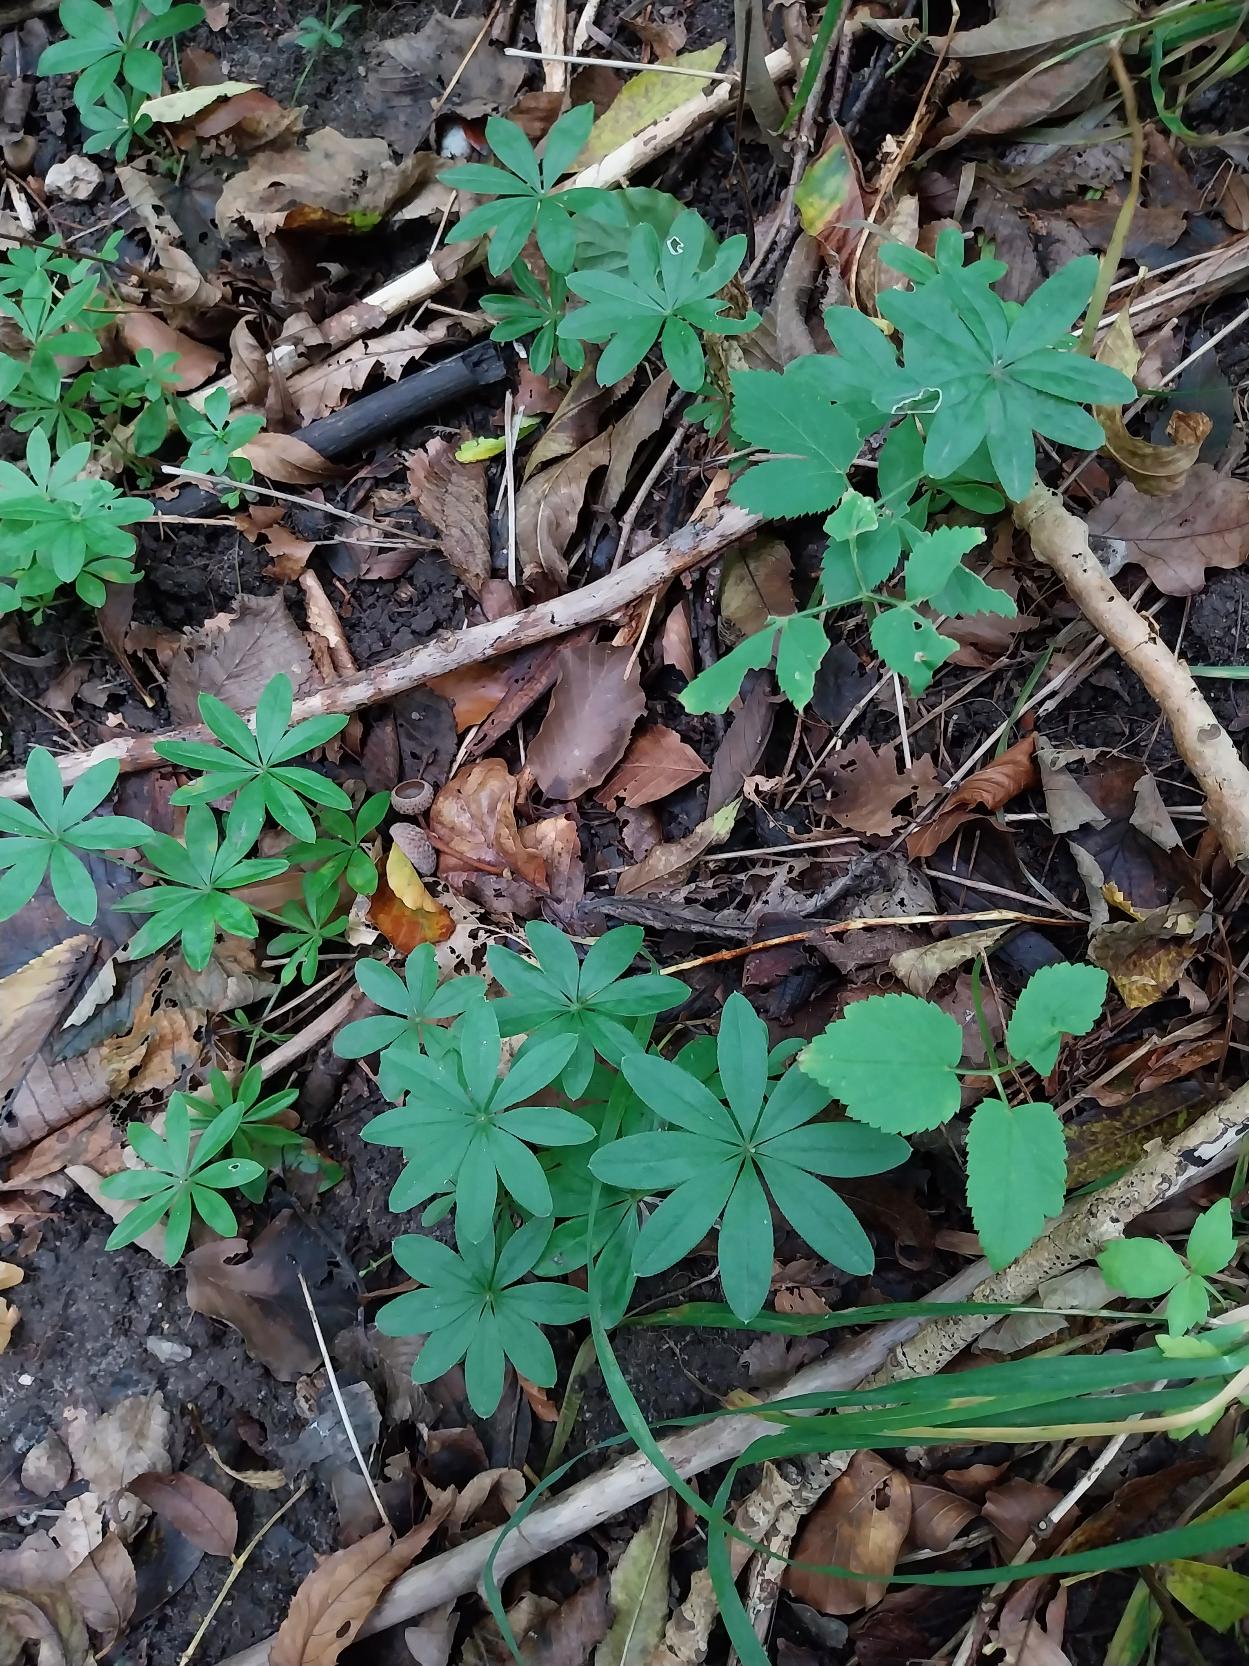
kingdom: Plantae
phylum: Tracheophyta
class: Magnoliopsida
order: Gentianales
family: Rubiaceae
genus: Galium
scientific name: Galium odoratum
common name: Skovmærke
